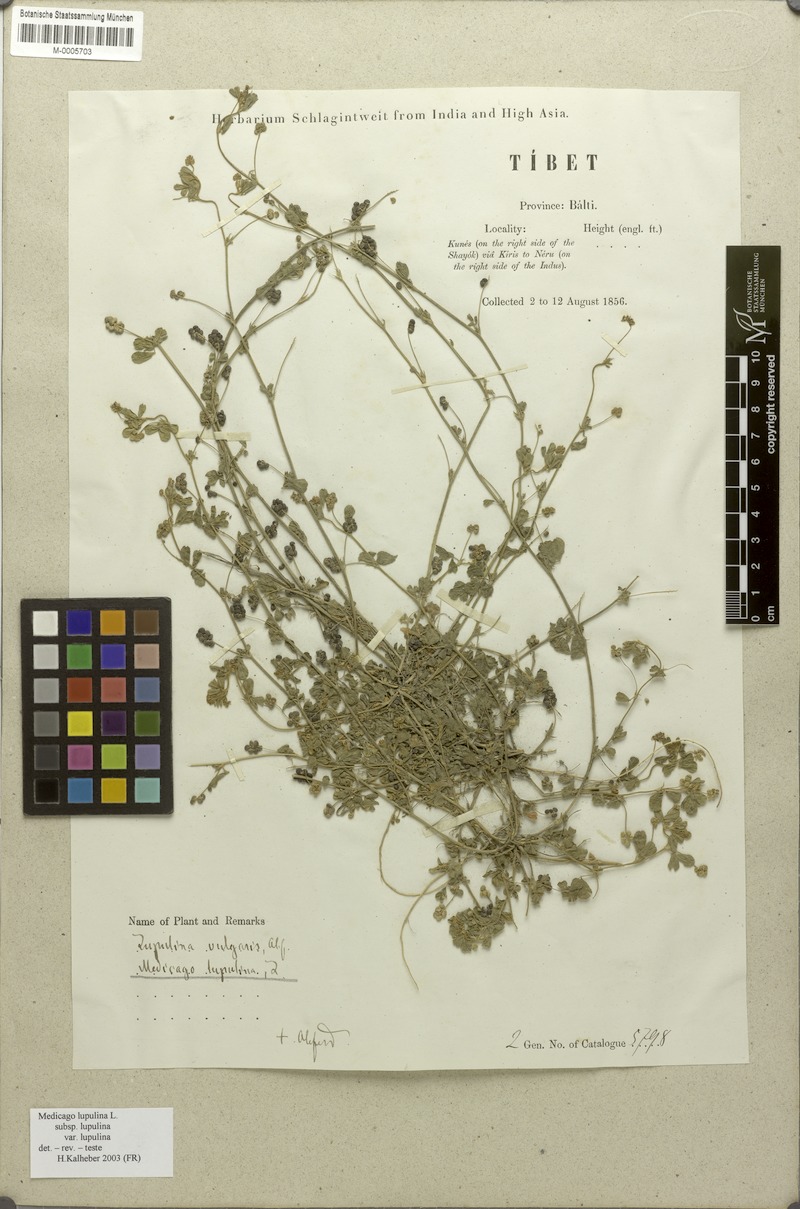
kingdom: Plantae
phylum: Tracheophyta
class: Magnoliopsida
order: Fabales
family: Fabaceae
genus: Medicago
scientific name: Medicago lupulina
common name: Black medick
